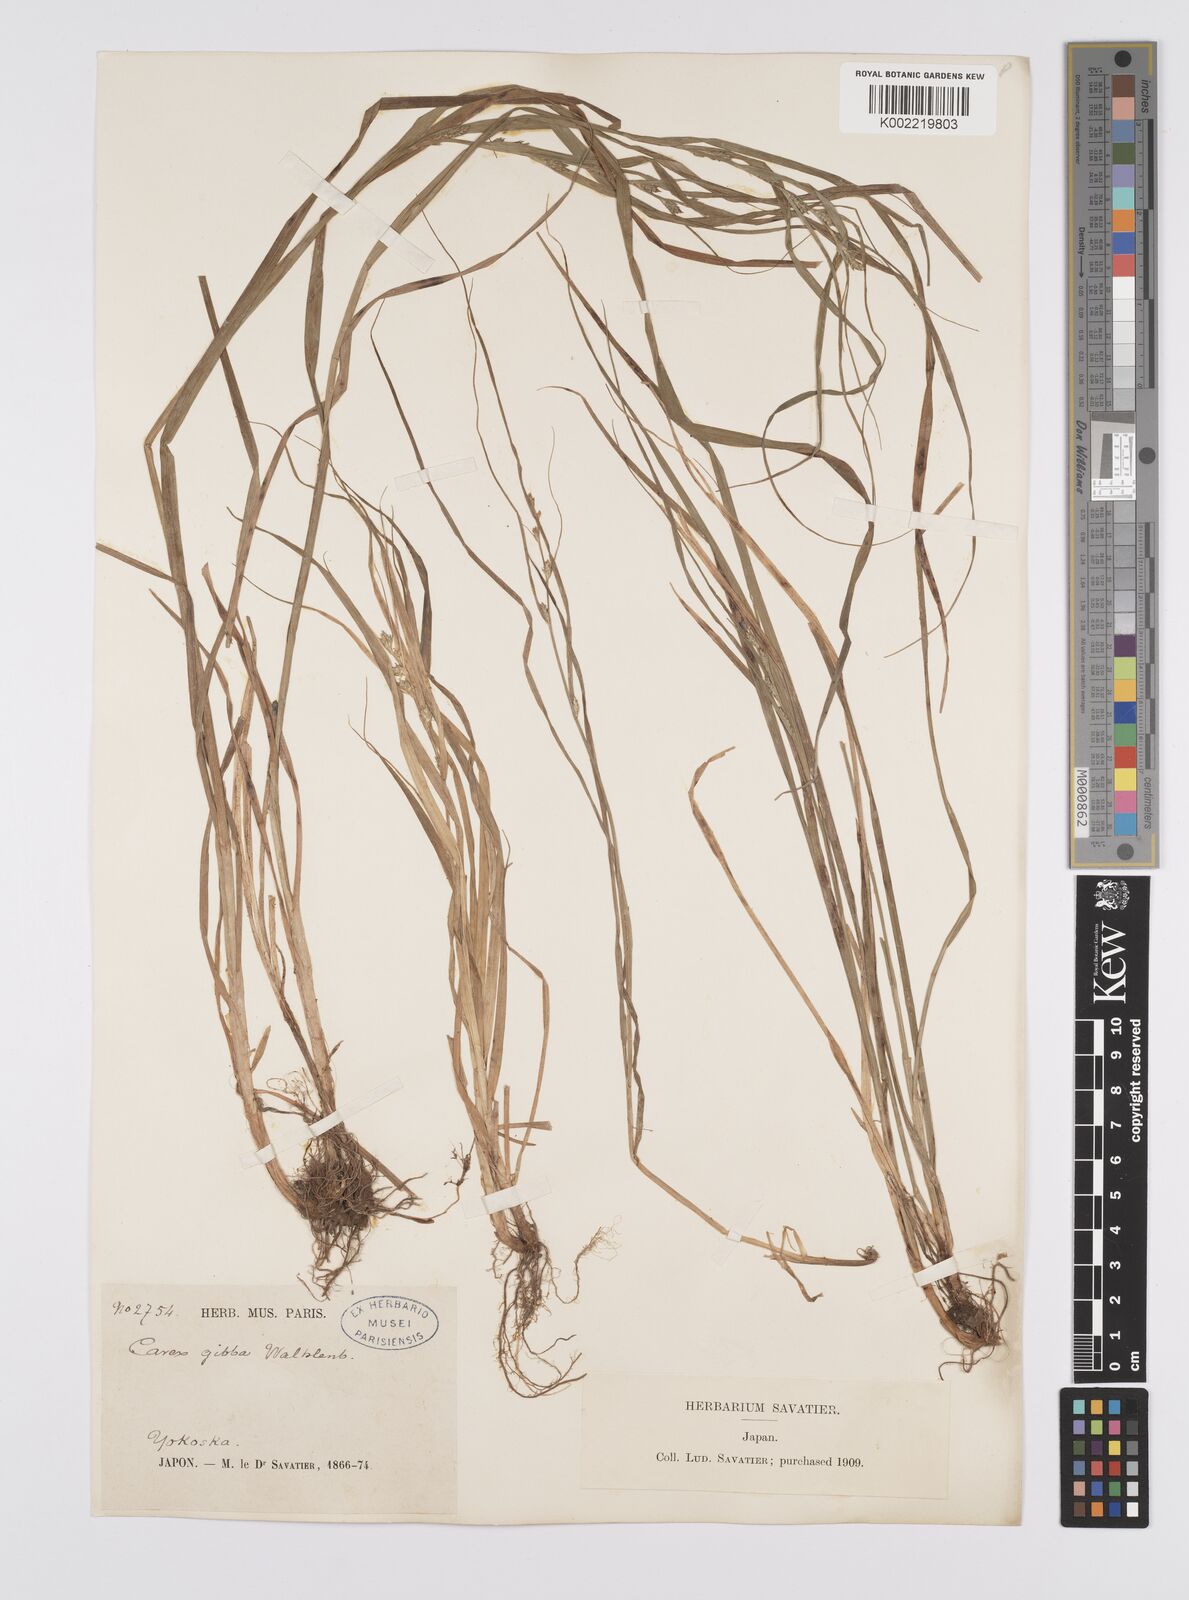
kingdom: Plantae
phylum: Tracheophyta
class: Liliopsida
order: Poales
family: Cyperaceae
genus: Carex
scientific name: Carex gibba
